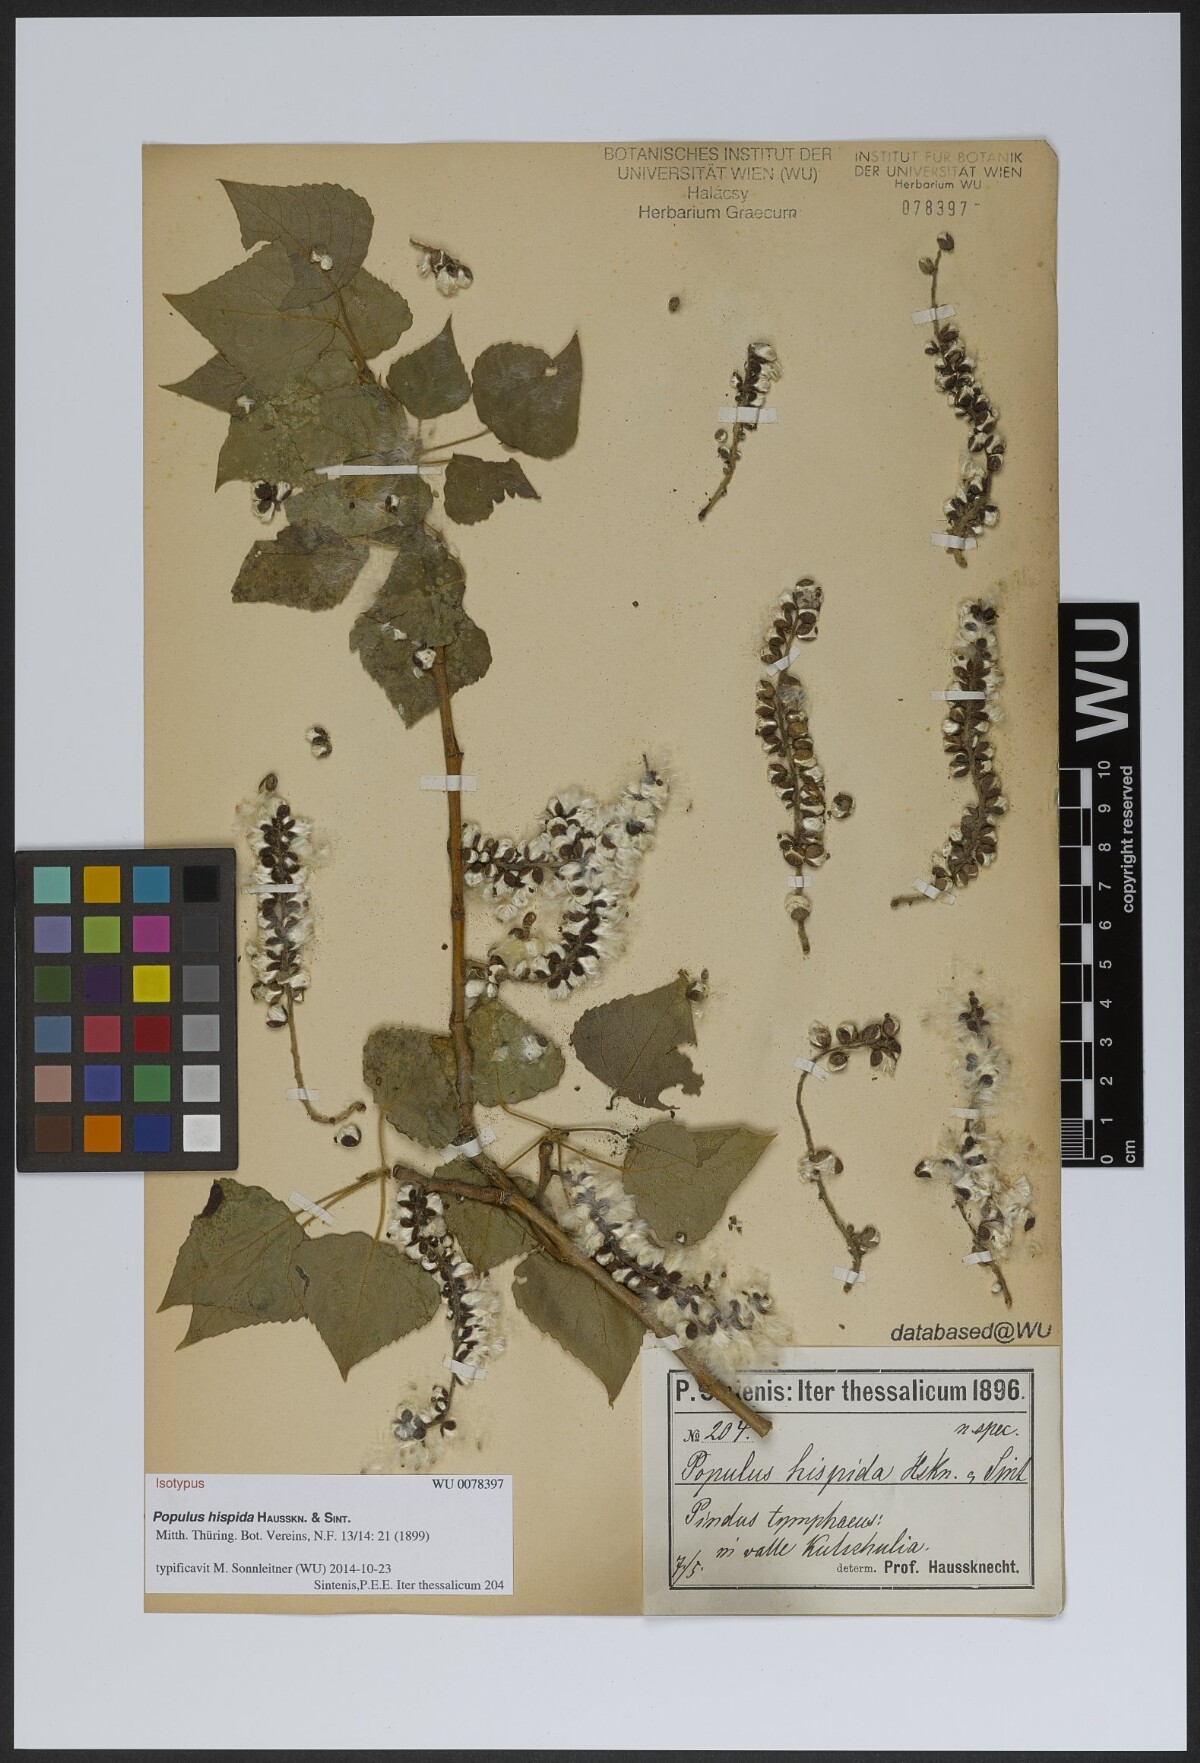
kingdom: Plantae
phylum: Tracheophyta
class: Magnoliopsida
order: Malpighiales
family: Salicaceae
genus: Populus
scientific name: Populus tremuloides
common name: Quaking aspen
